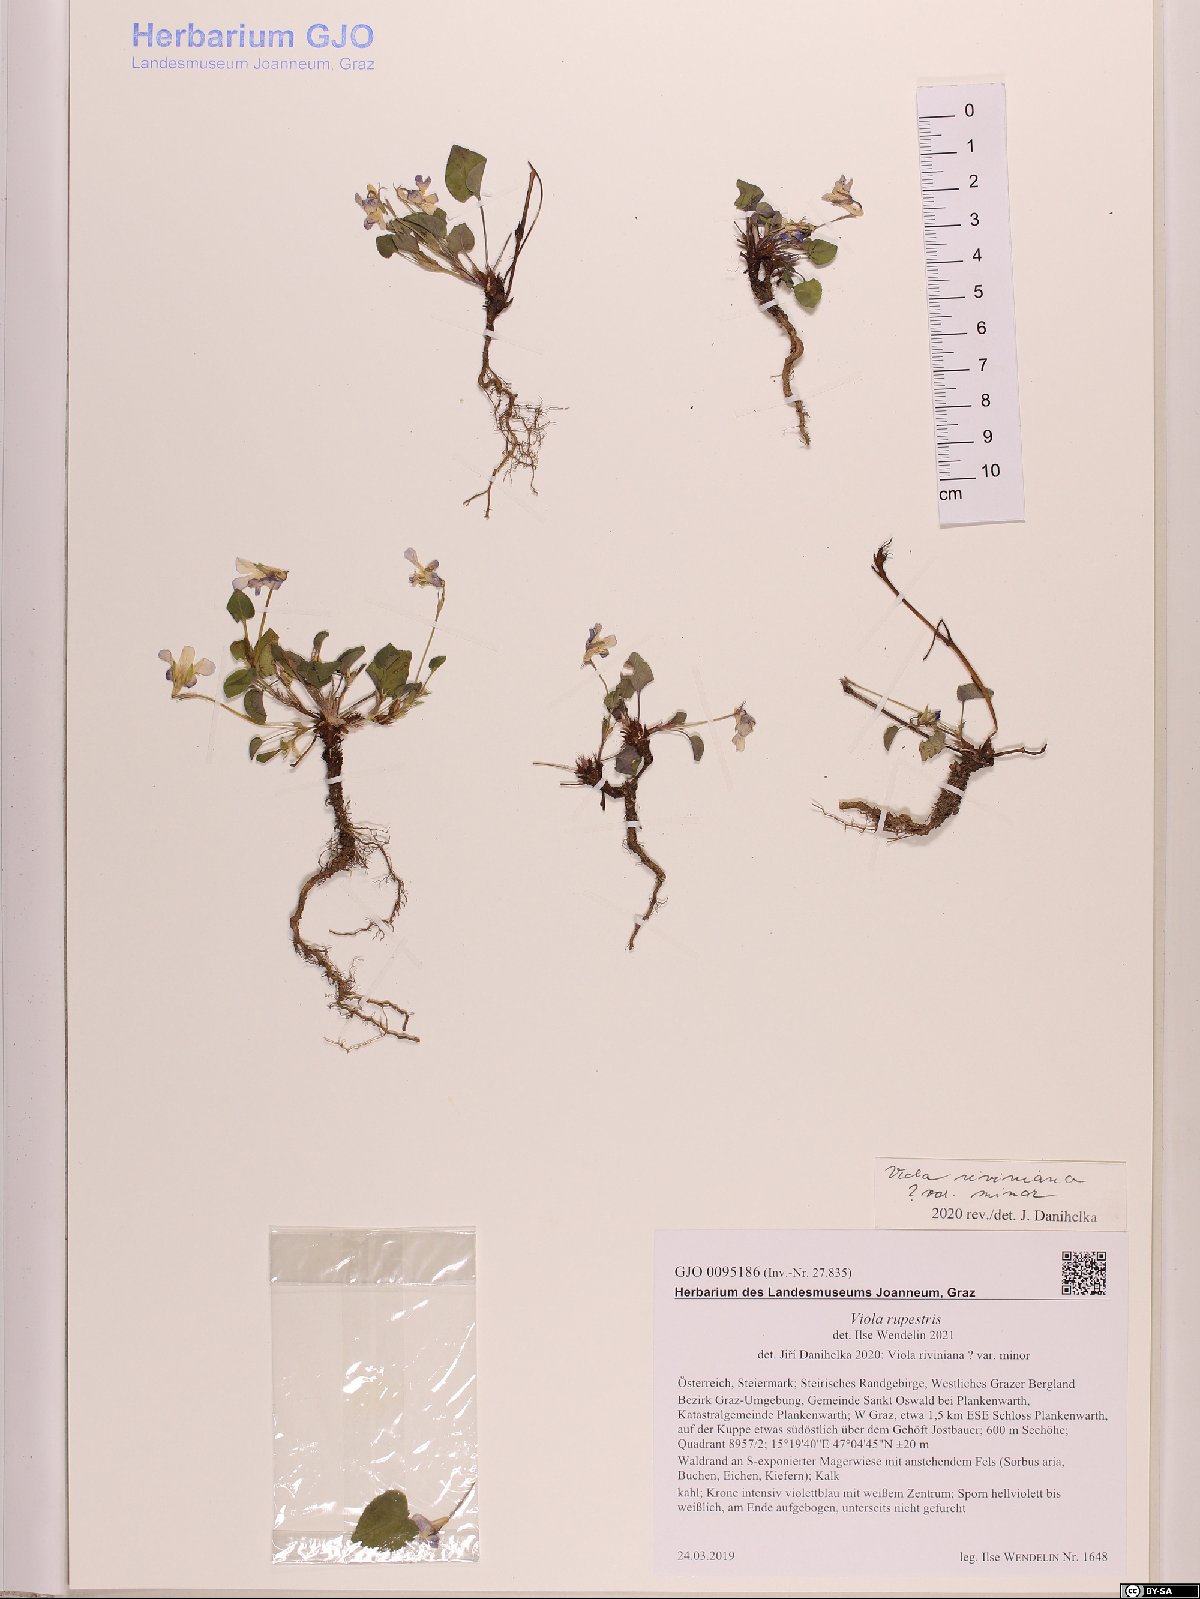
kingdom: Plantae
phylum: Tracheophyta
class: Magnoliopsida
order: Malpighiales
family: Violaceae
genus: Viola
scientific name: Viola rupestris
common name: Teesdale violet
